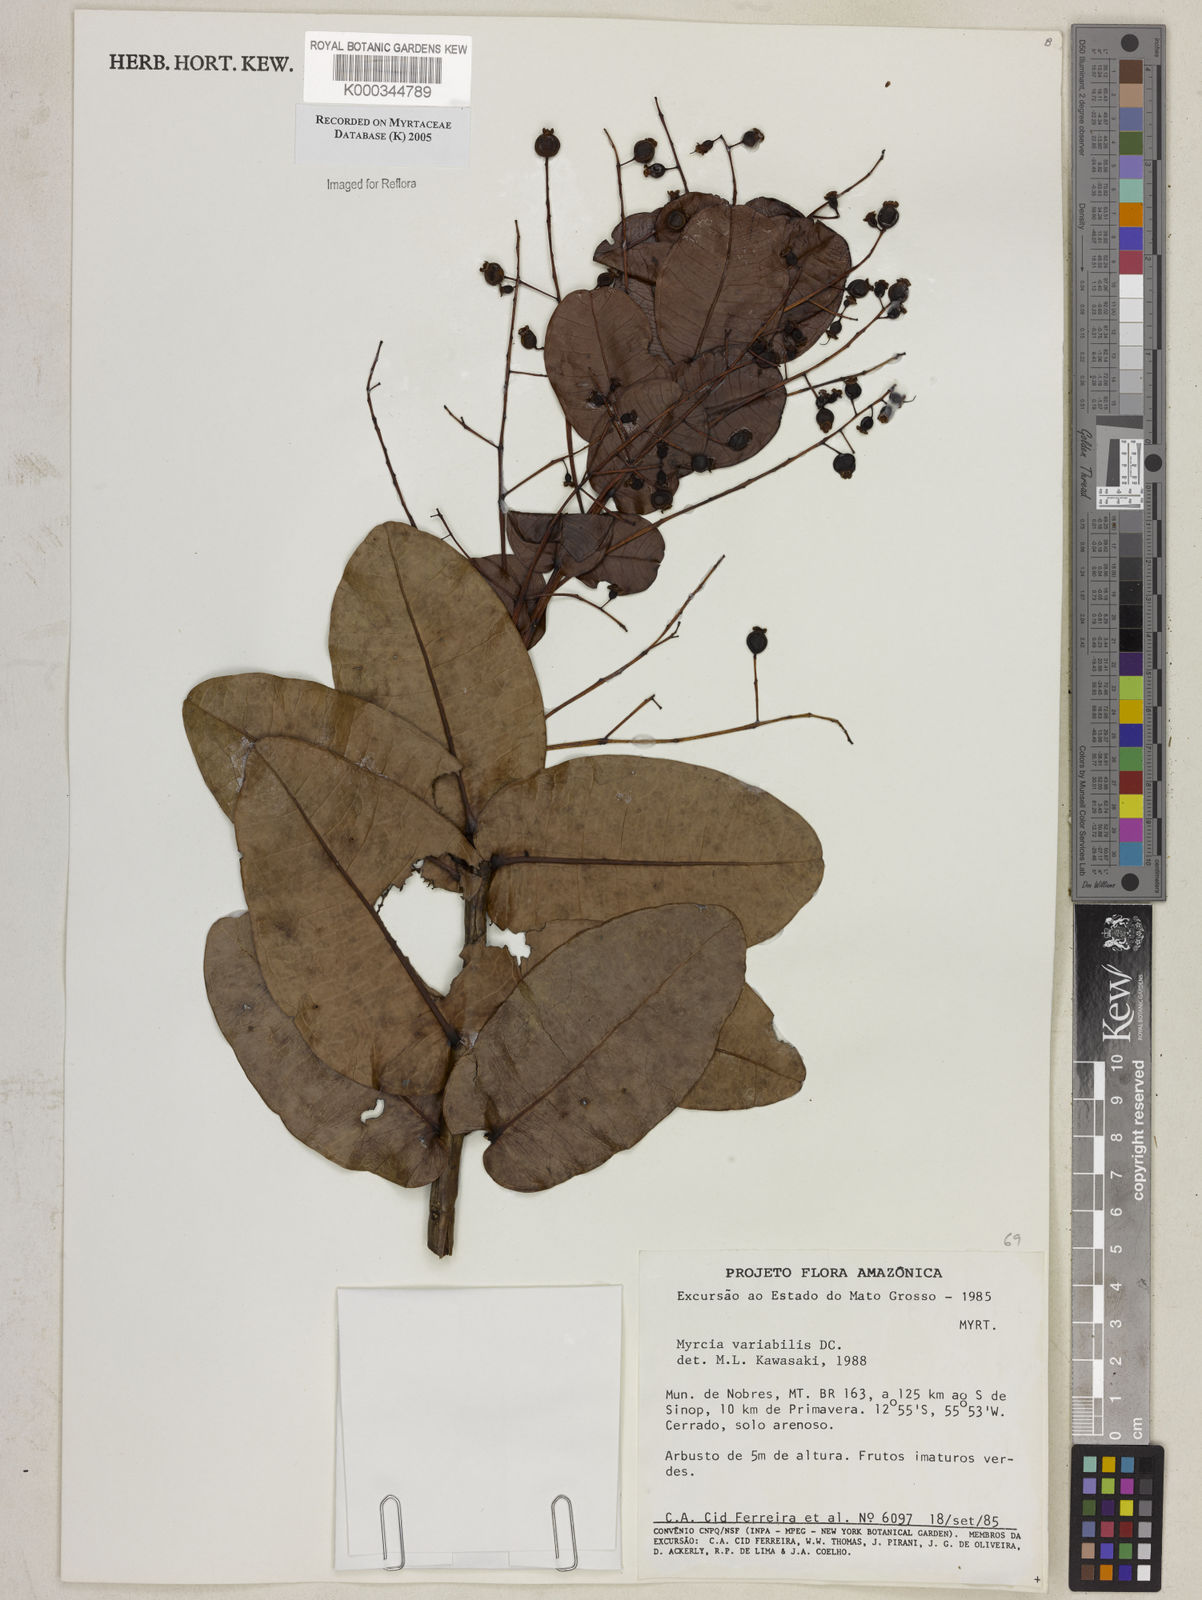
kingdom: Plantae
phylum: Tracheophyta
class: Magnoliopsida
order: Myrtales
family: Myrtaceae
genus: Myrcia
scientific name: Myrcia variabilis
